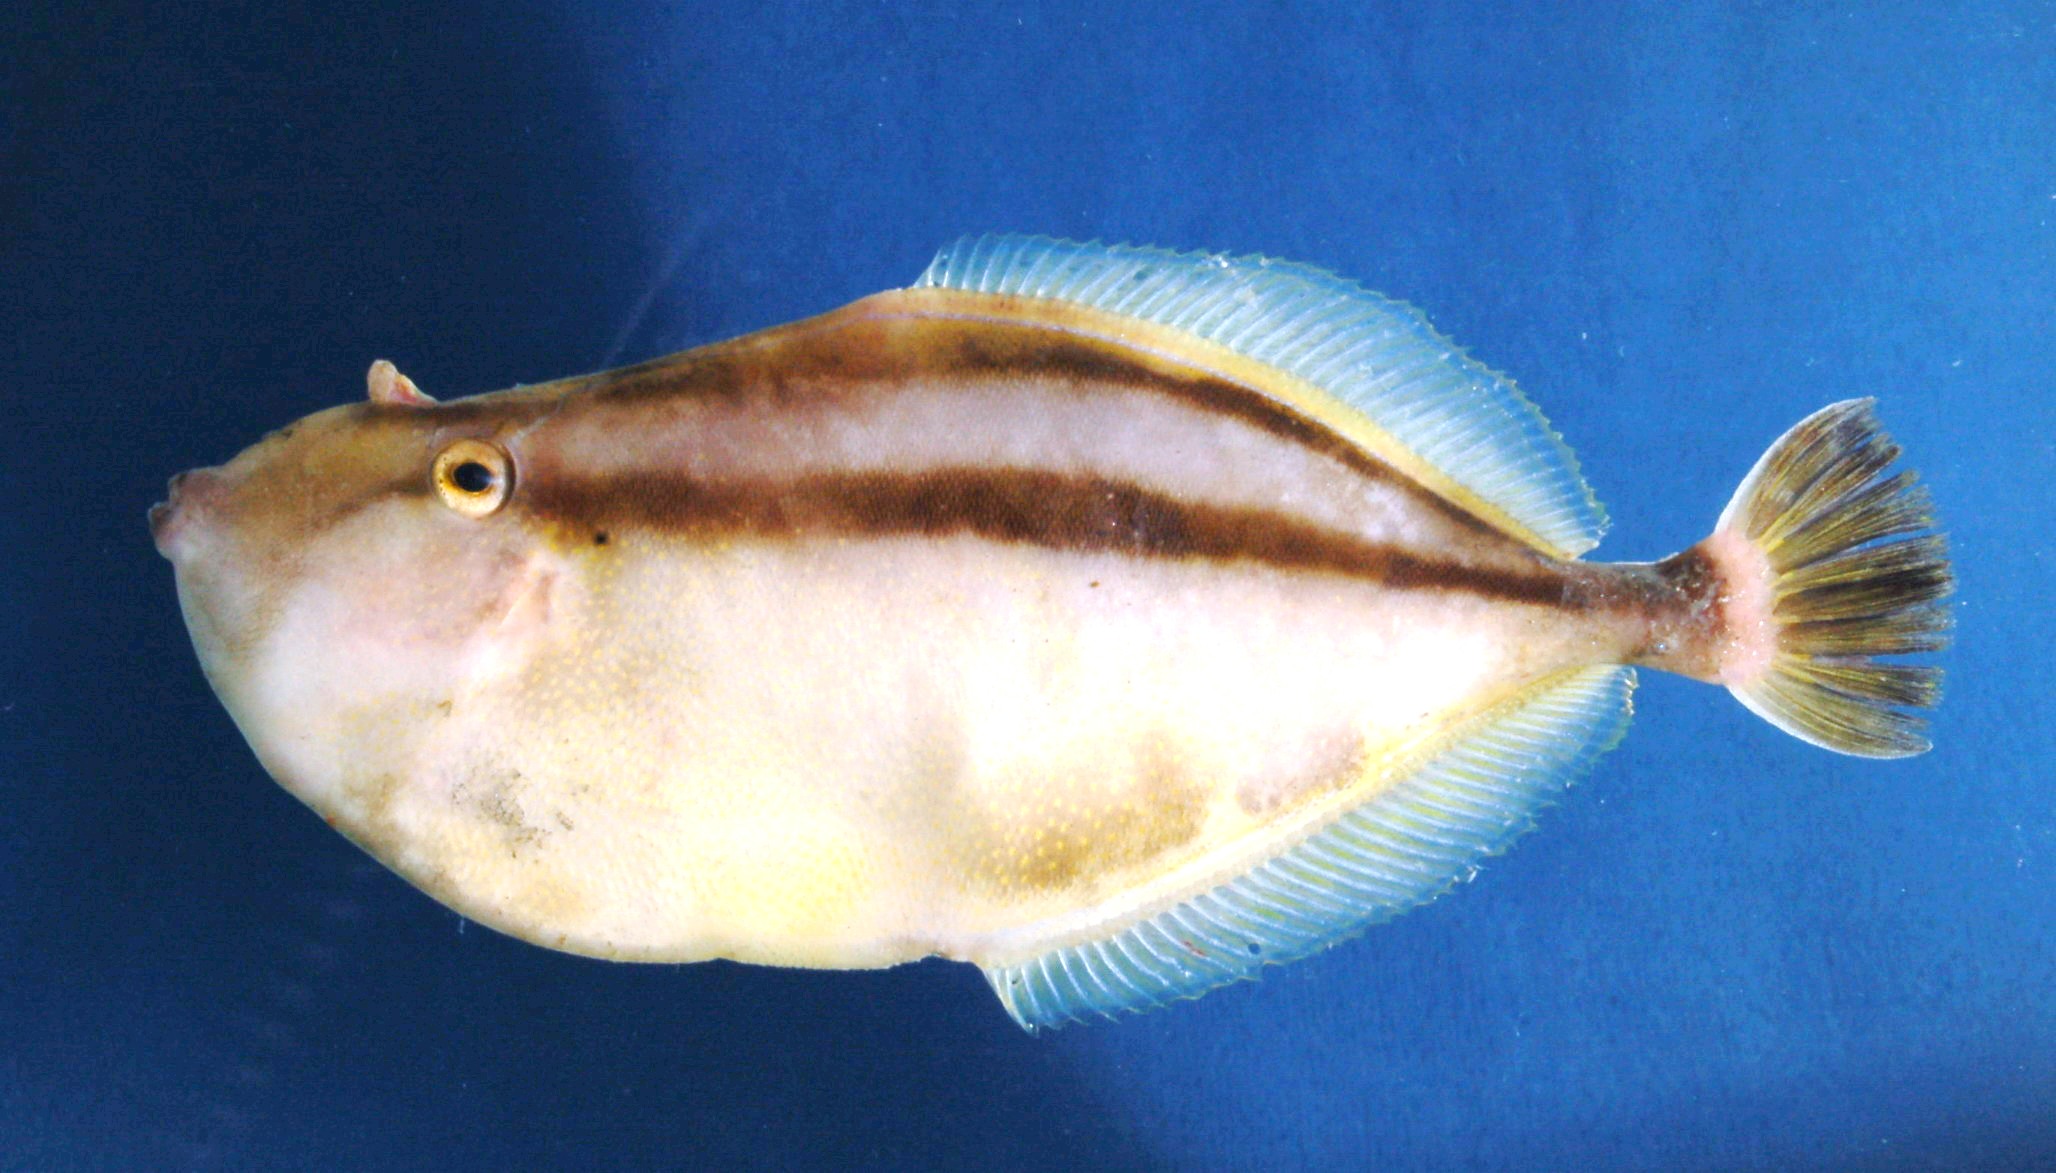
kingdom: Animalia
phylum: Chordata
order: Tetraodontiformes
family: Monacanthidae
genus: Pseudalutarius
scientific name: Pseudalutarius nasicornis
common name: Rhinoceros filefish
